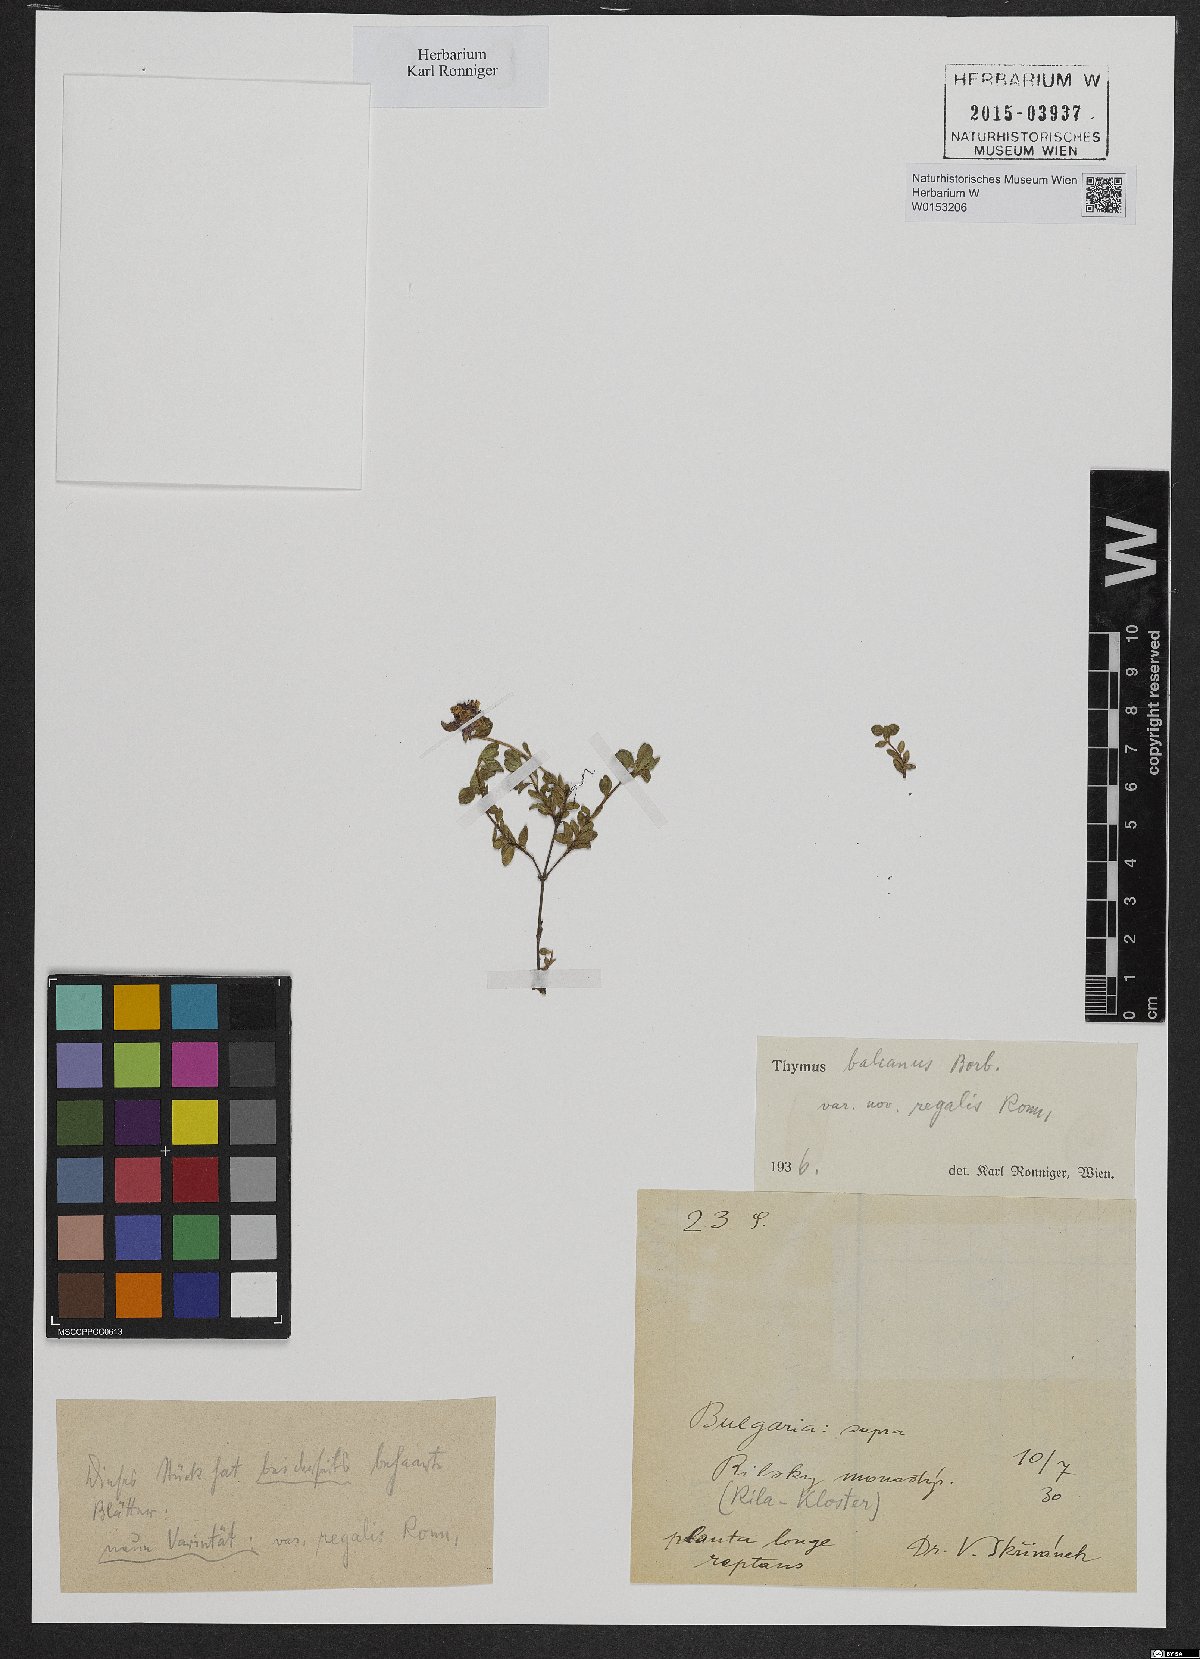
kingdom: Plantae
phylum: Tracheophyta
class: Magnoliopsida
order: Lamiales
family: Lamiaceae
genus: Thymus
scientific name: Thymus praecox
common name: Wild thyme
